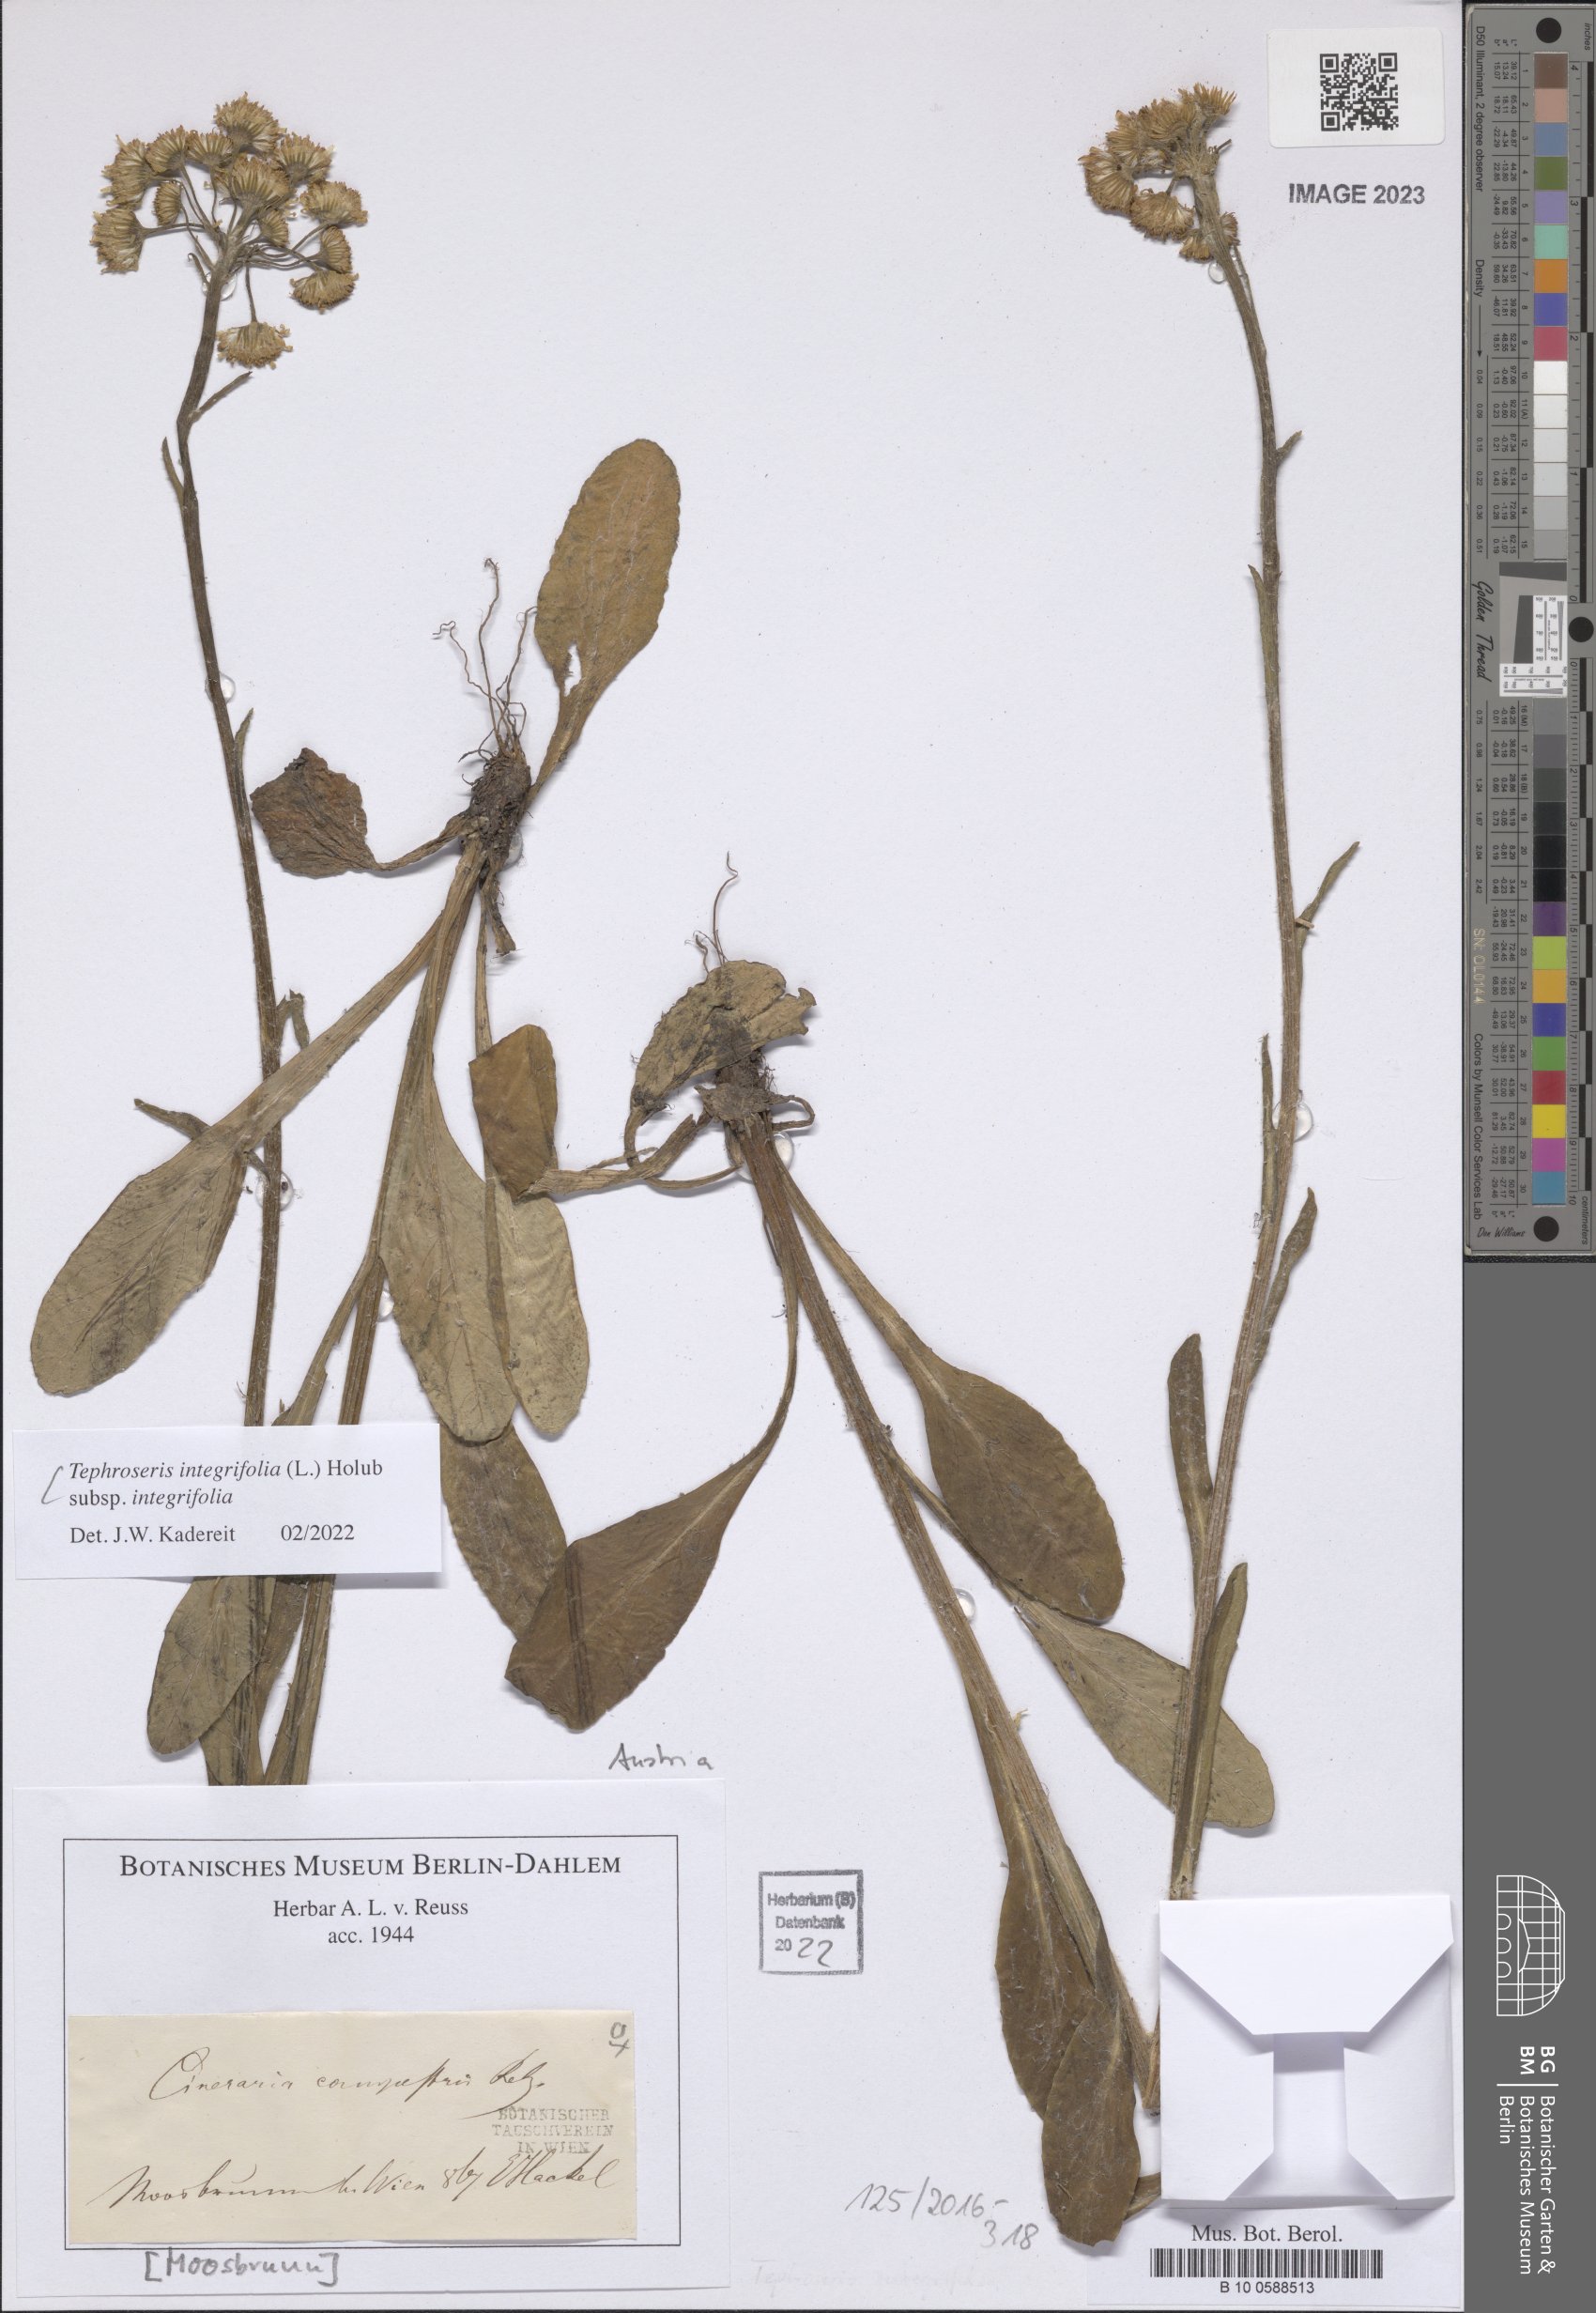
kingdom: Plantae
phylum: Tracheophyta
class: Magnoliopsida
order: Asterales
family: Asteraceae
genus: Tephroseris
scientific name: Tephroseris integrifolia
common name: Field fleawort
